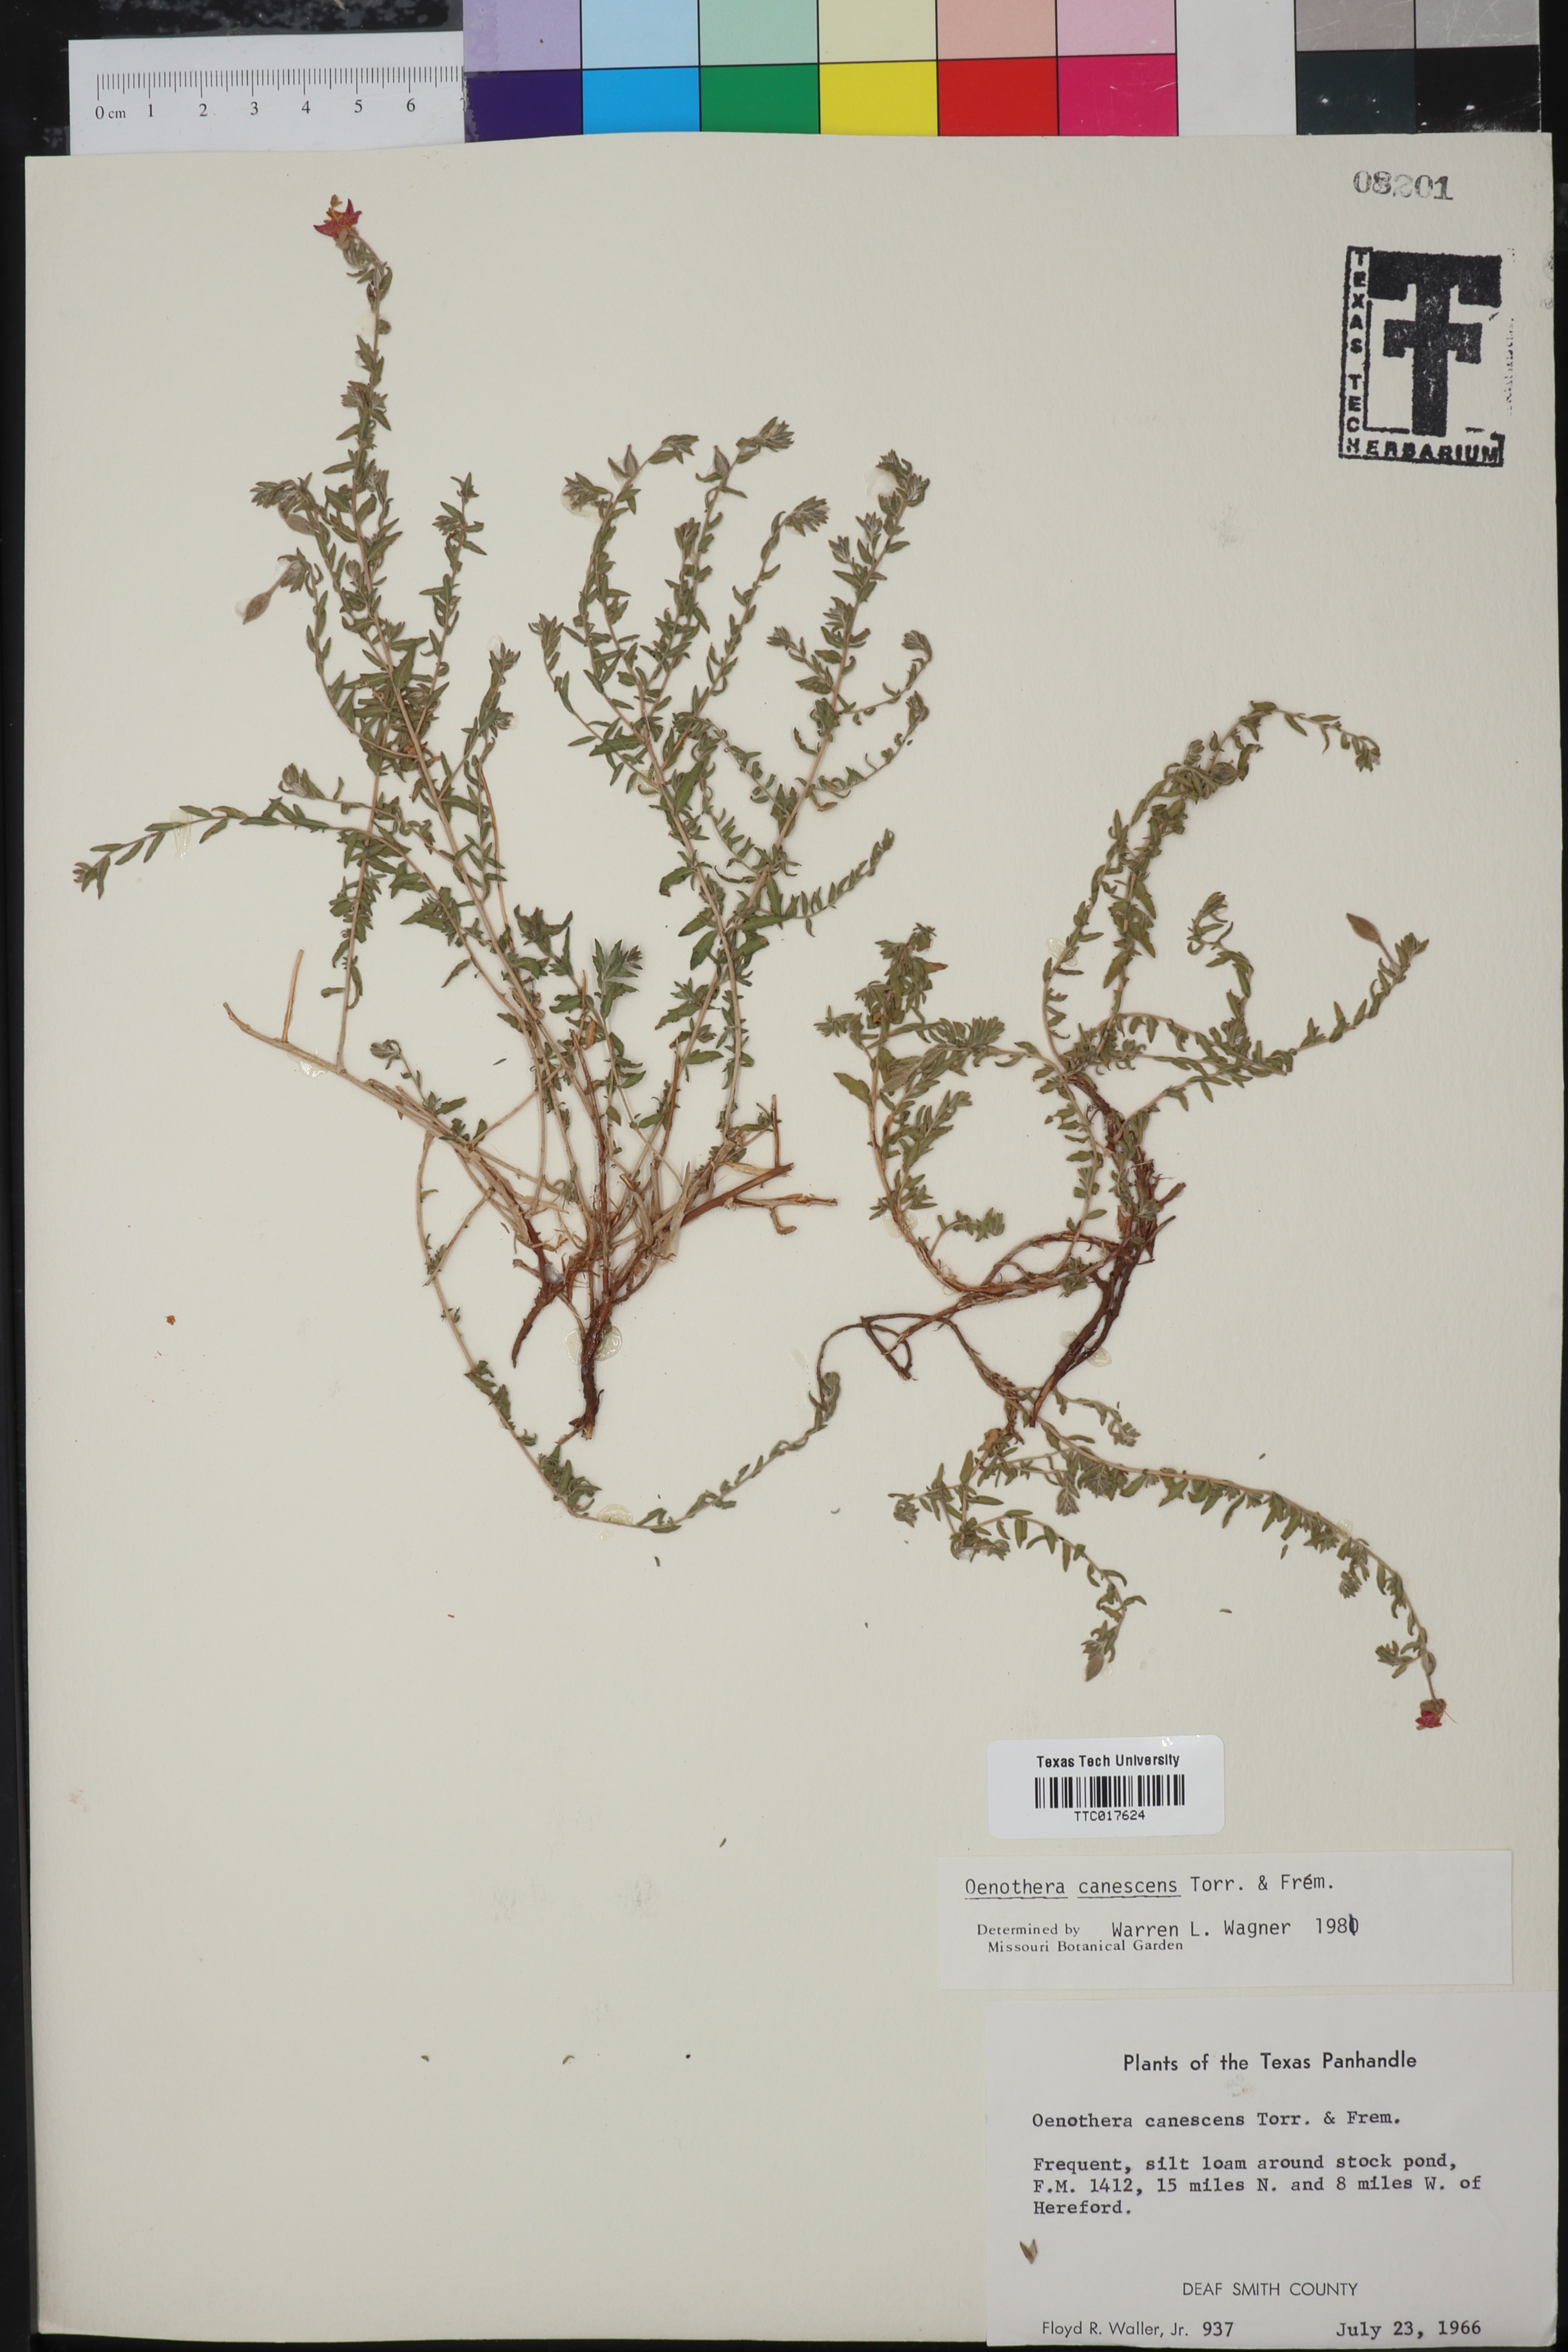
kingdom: Plantae
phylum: Tracheophyta
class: Magnoliopsida
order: Myrtales
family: Onagraceae
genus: Oenothera
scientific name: Oenothera canescens
